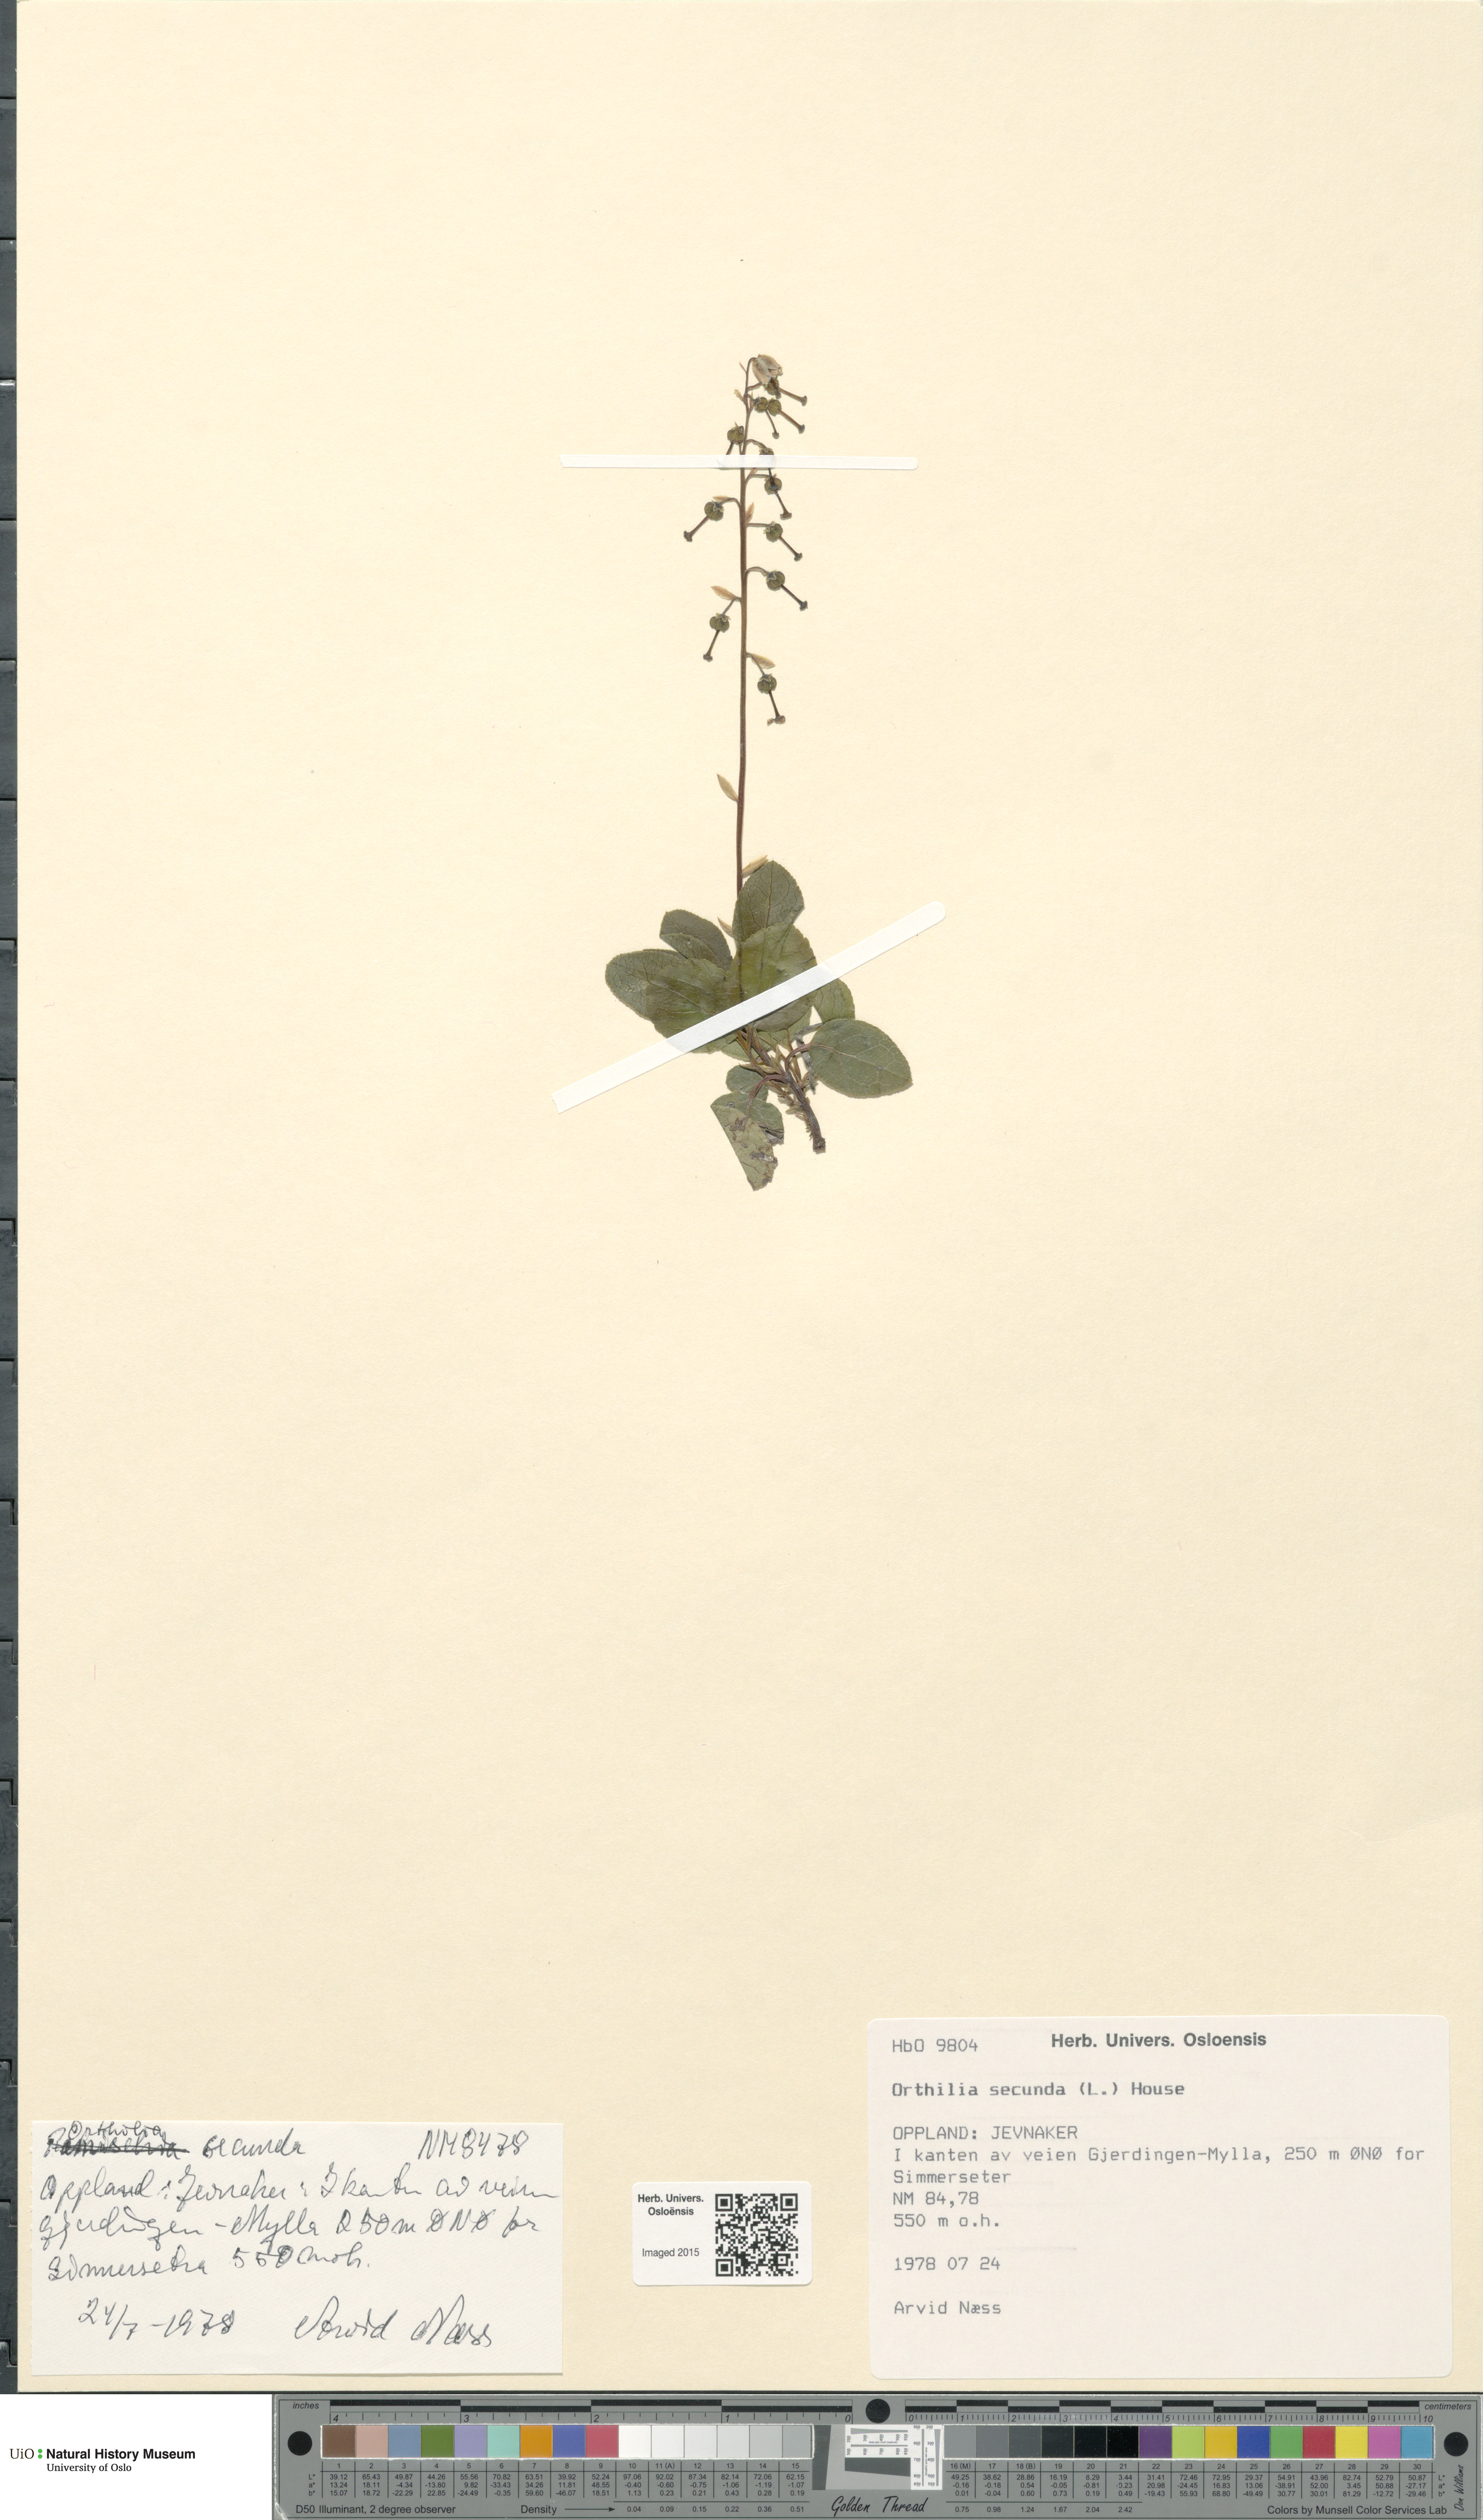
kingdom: Plantae
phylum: Tracheophyta
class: Magnoliopsida
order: Ericales
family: Ericaceae
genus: Orthilia
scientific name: Orthilia secunda
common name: One-sided orthilia
